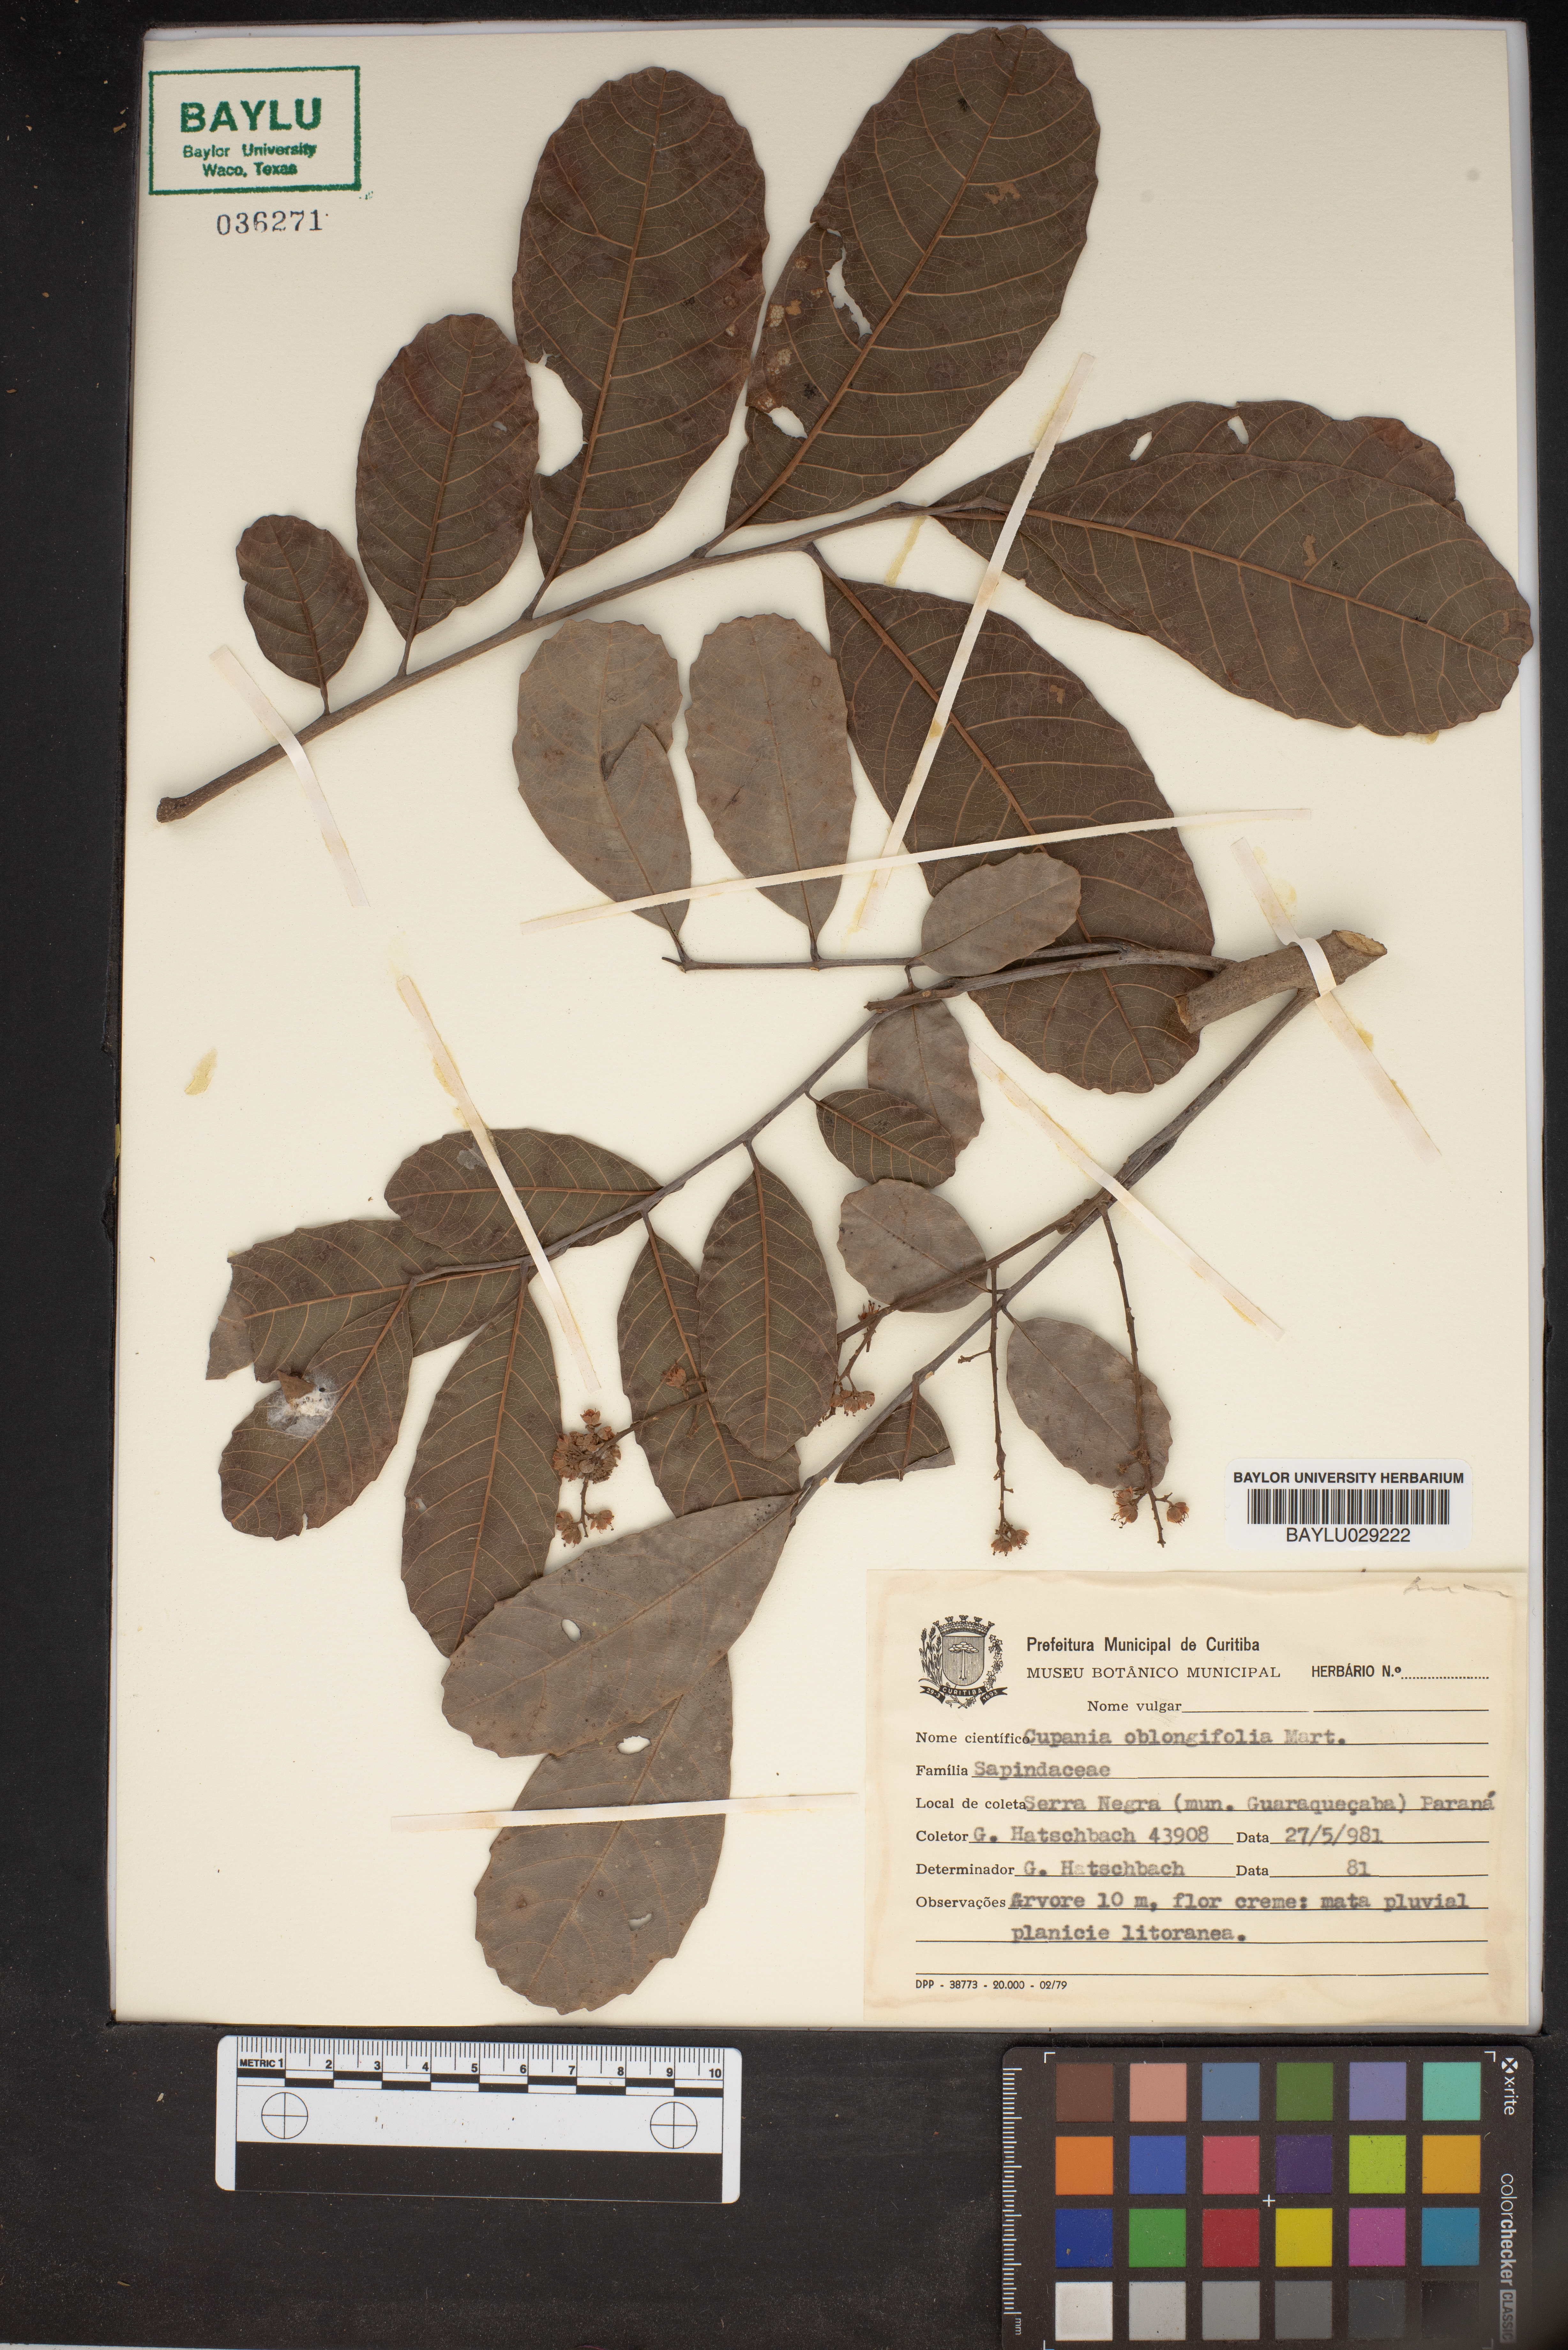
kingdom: Plantae
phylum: Tracheophyta
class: Magnoliopsida
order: Sapindales
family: Sapindaceae
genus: Cupania
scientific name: Cupania oblongifolia
